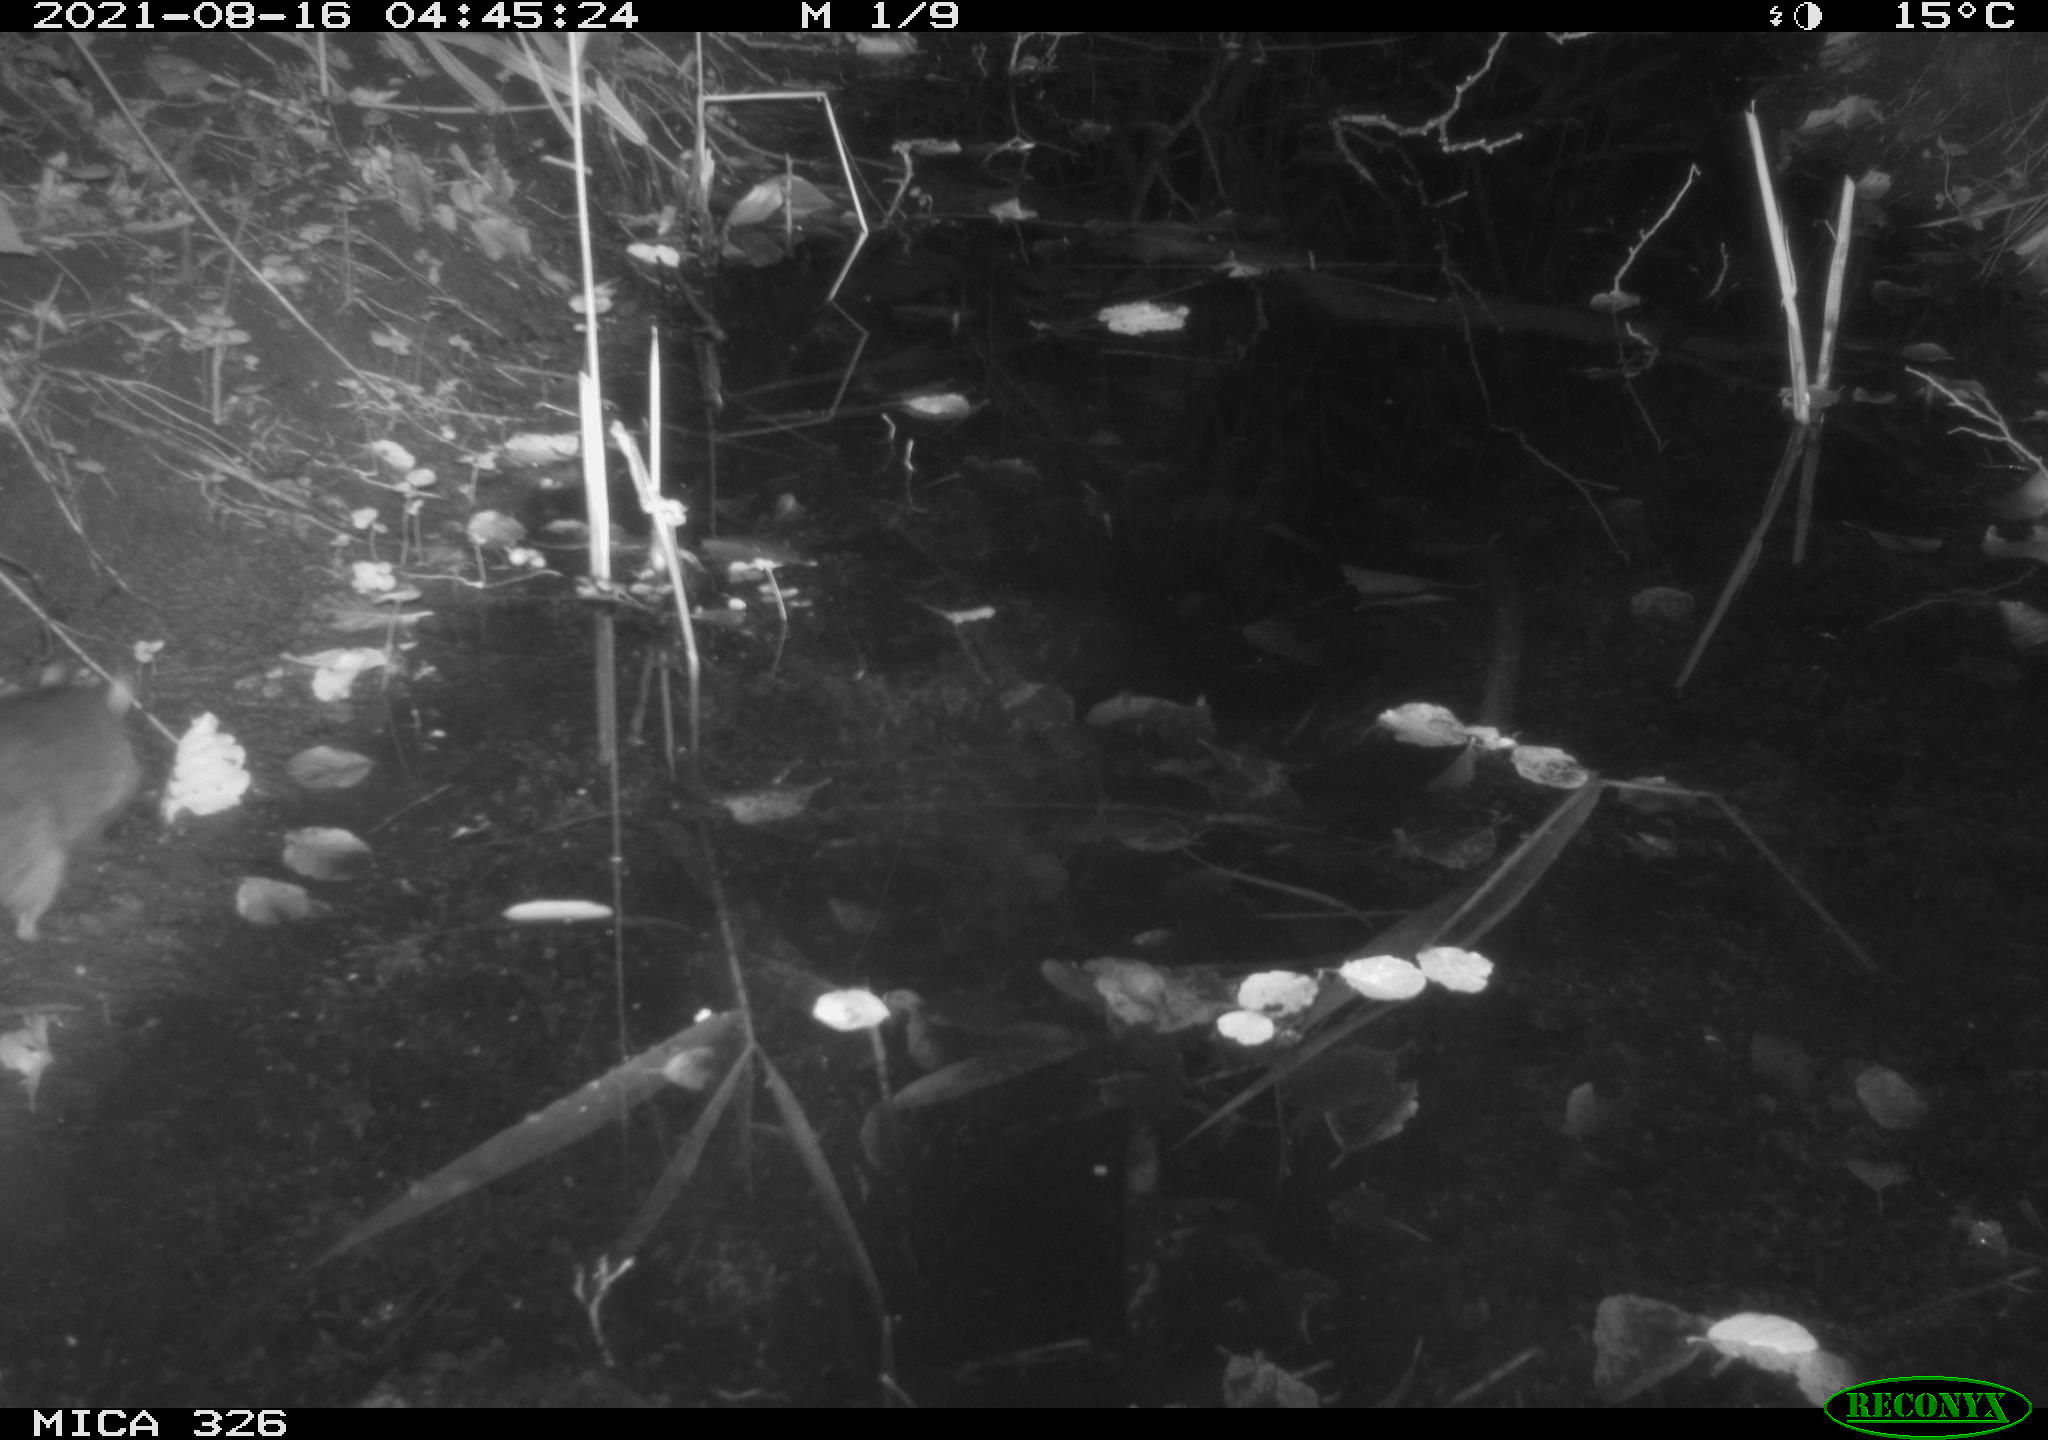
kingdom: Animalia
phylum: Chordata
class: Mammalia
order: Rodentia
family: Muridae
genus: Rattus
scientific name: Rattus norvegicus
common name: Brown rat
